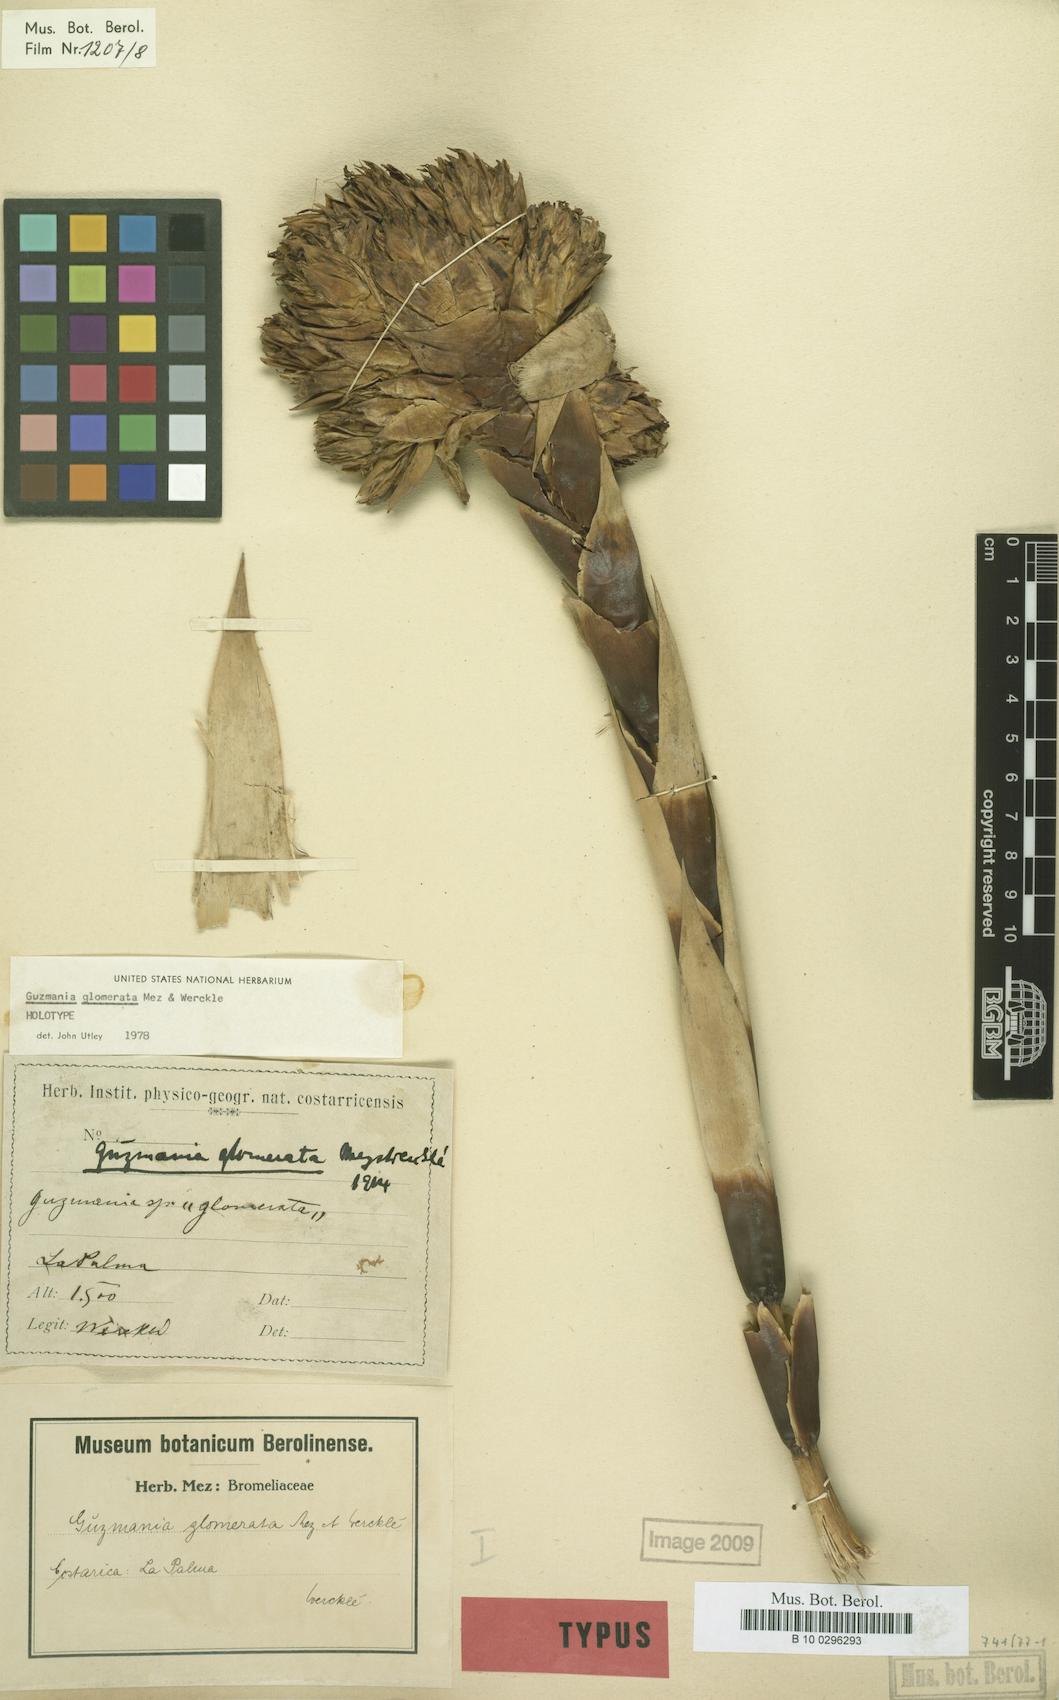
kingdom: Plantae
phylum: Tracheophyta
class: Liliopsida
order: Poales
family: Bromeliaceae
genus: Guzmania
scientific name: Guzmania glomerata
